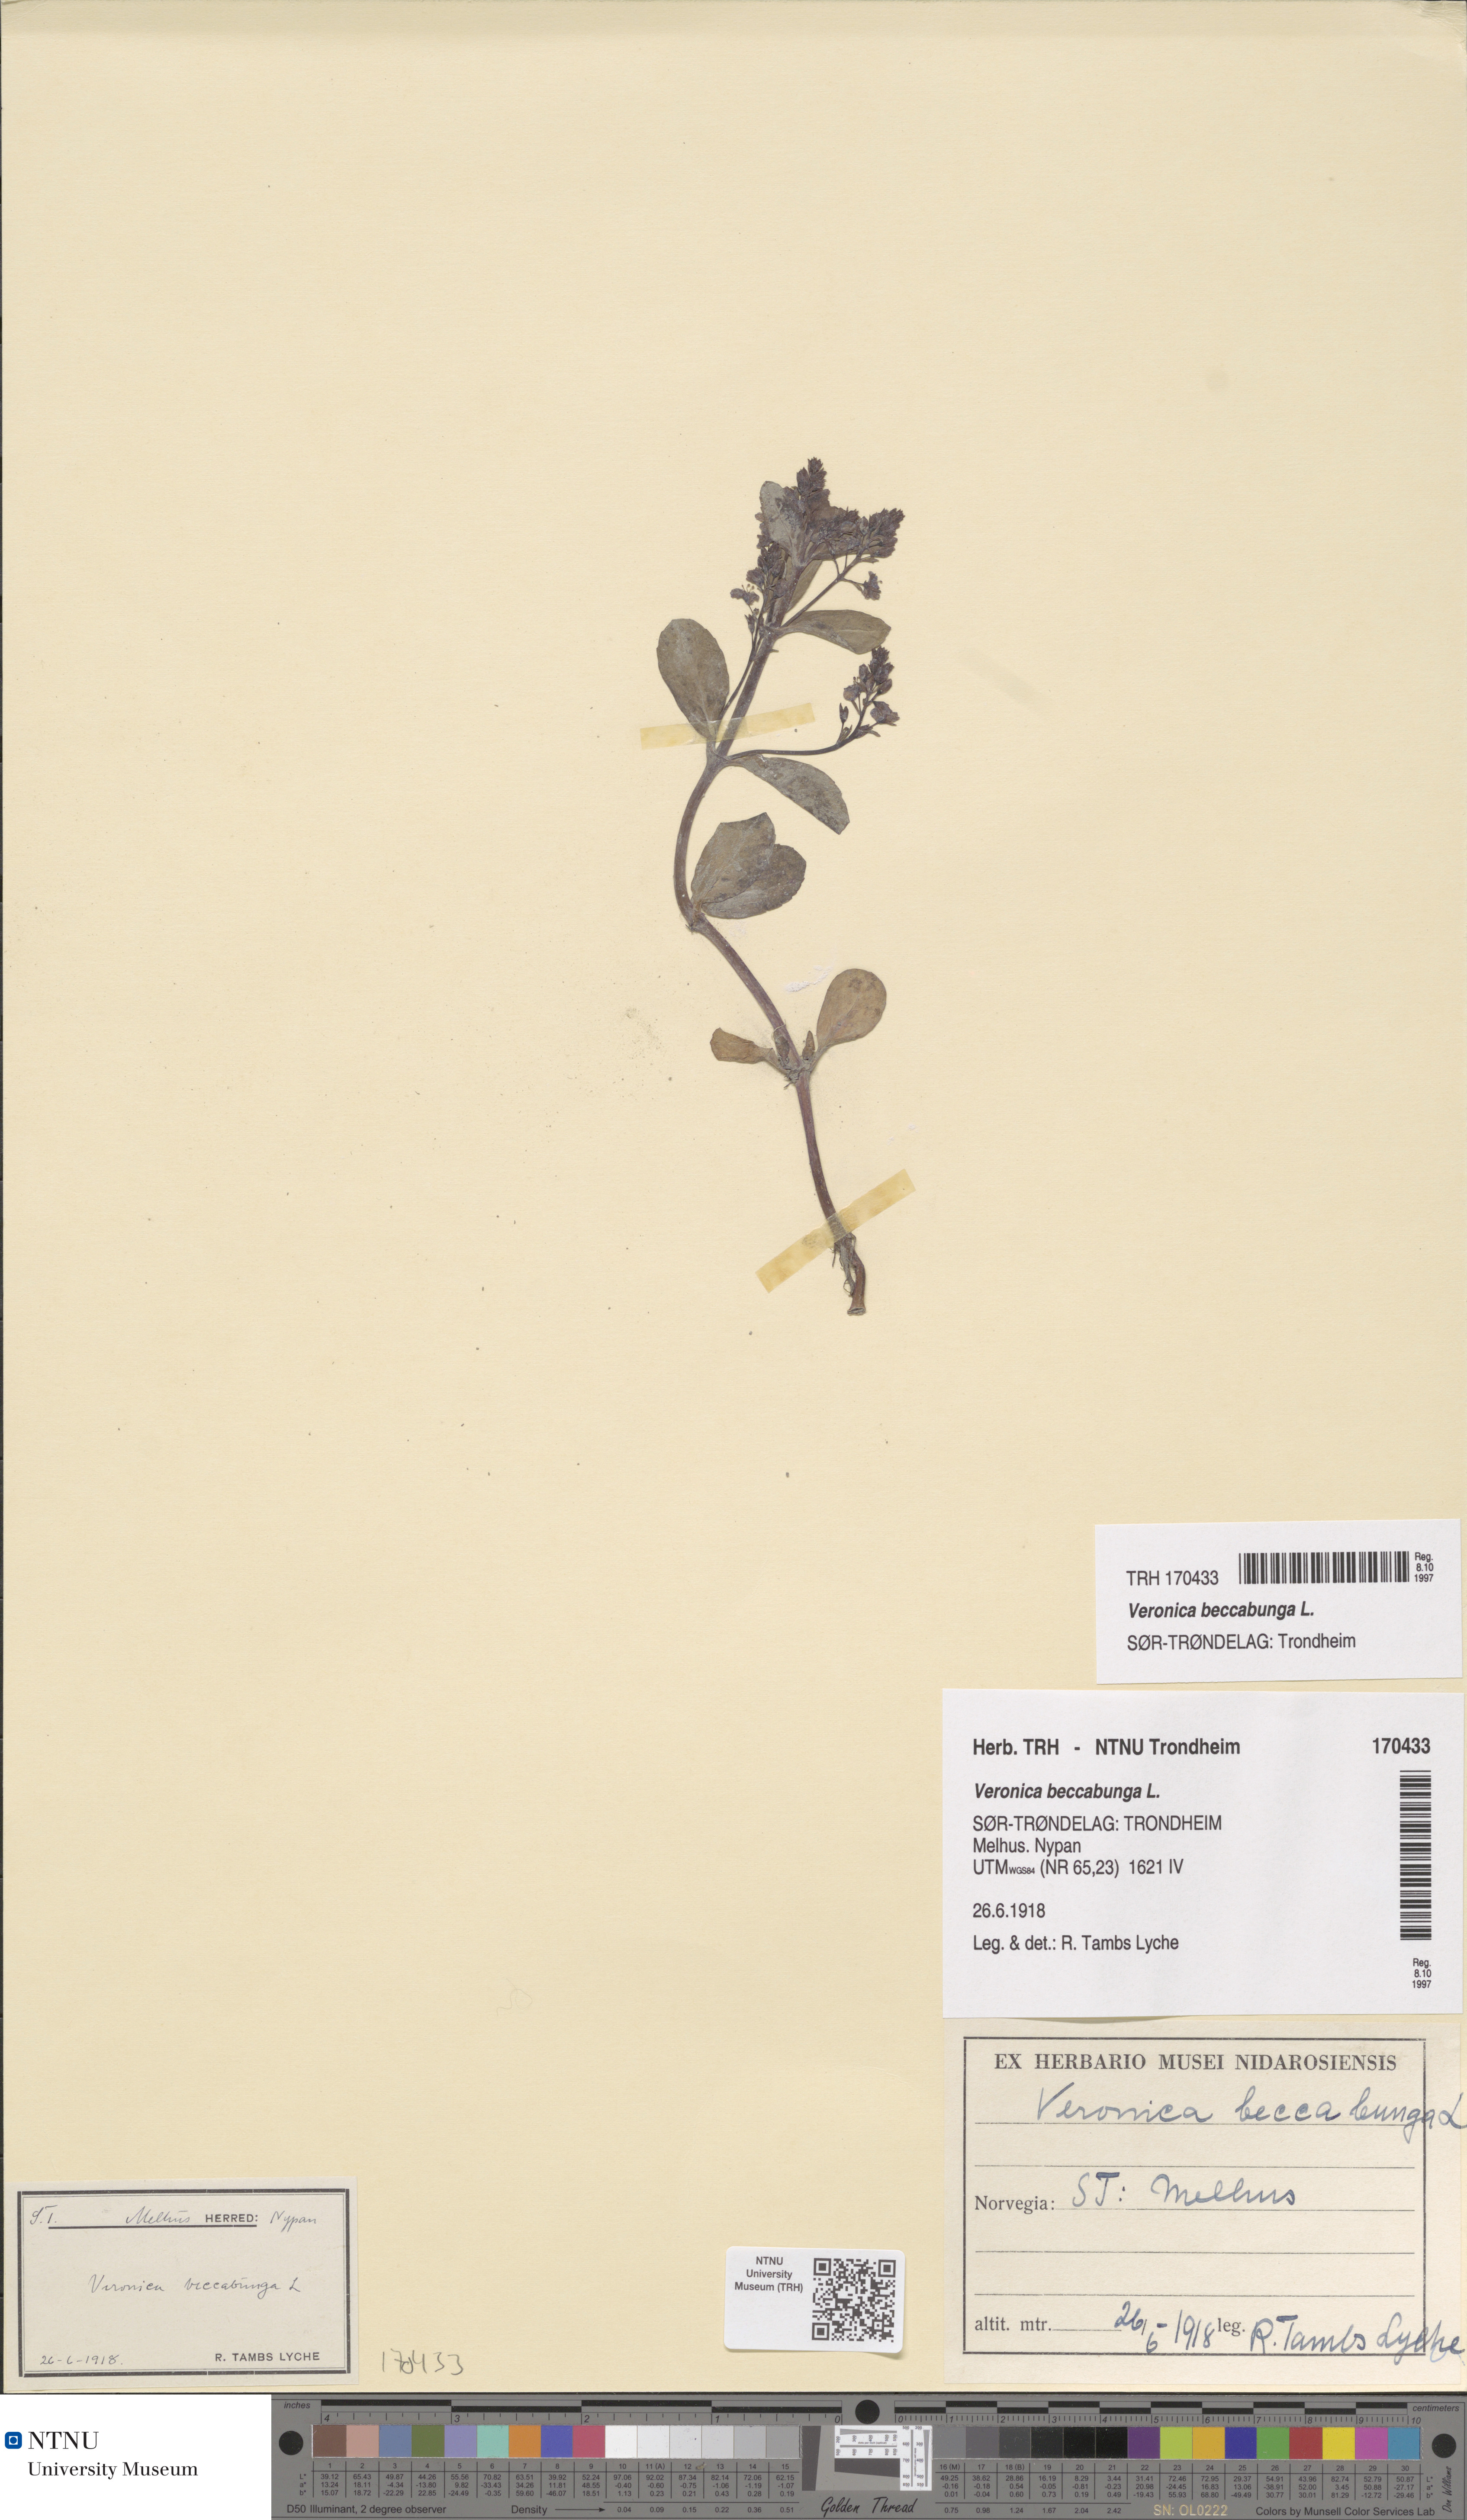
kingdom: Plantae
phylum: Tracheophyta
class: Magnoliopsida
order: Lamiales
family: Plantaginaceae
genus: Veronica
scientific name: Veronica beccabunga
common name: Brooklime
